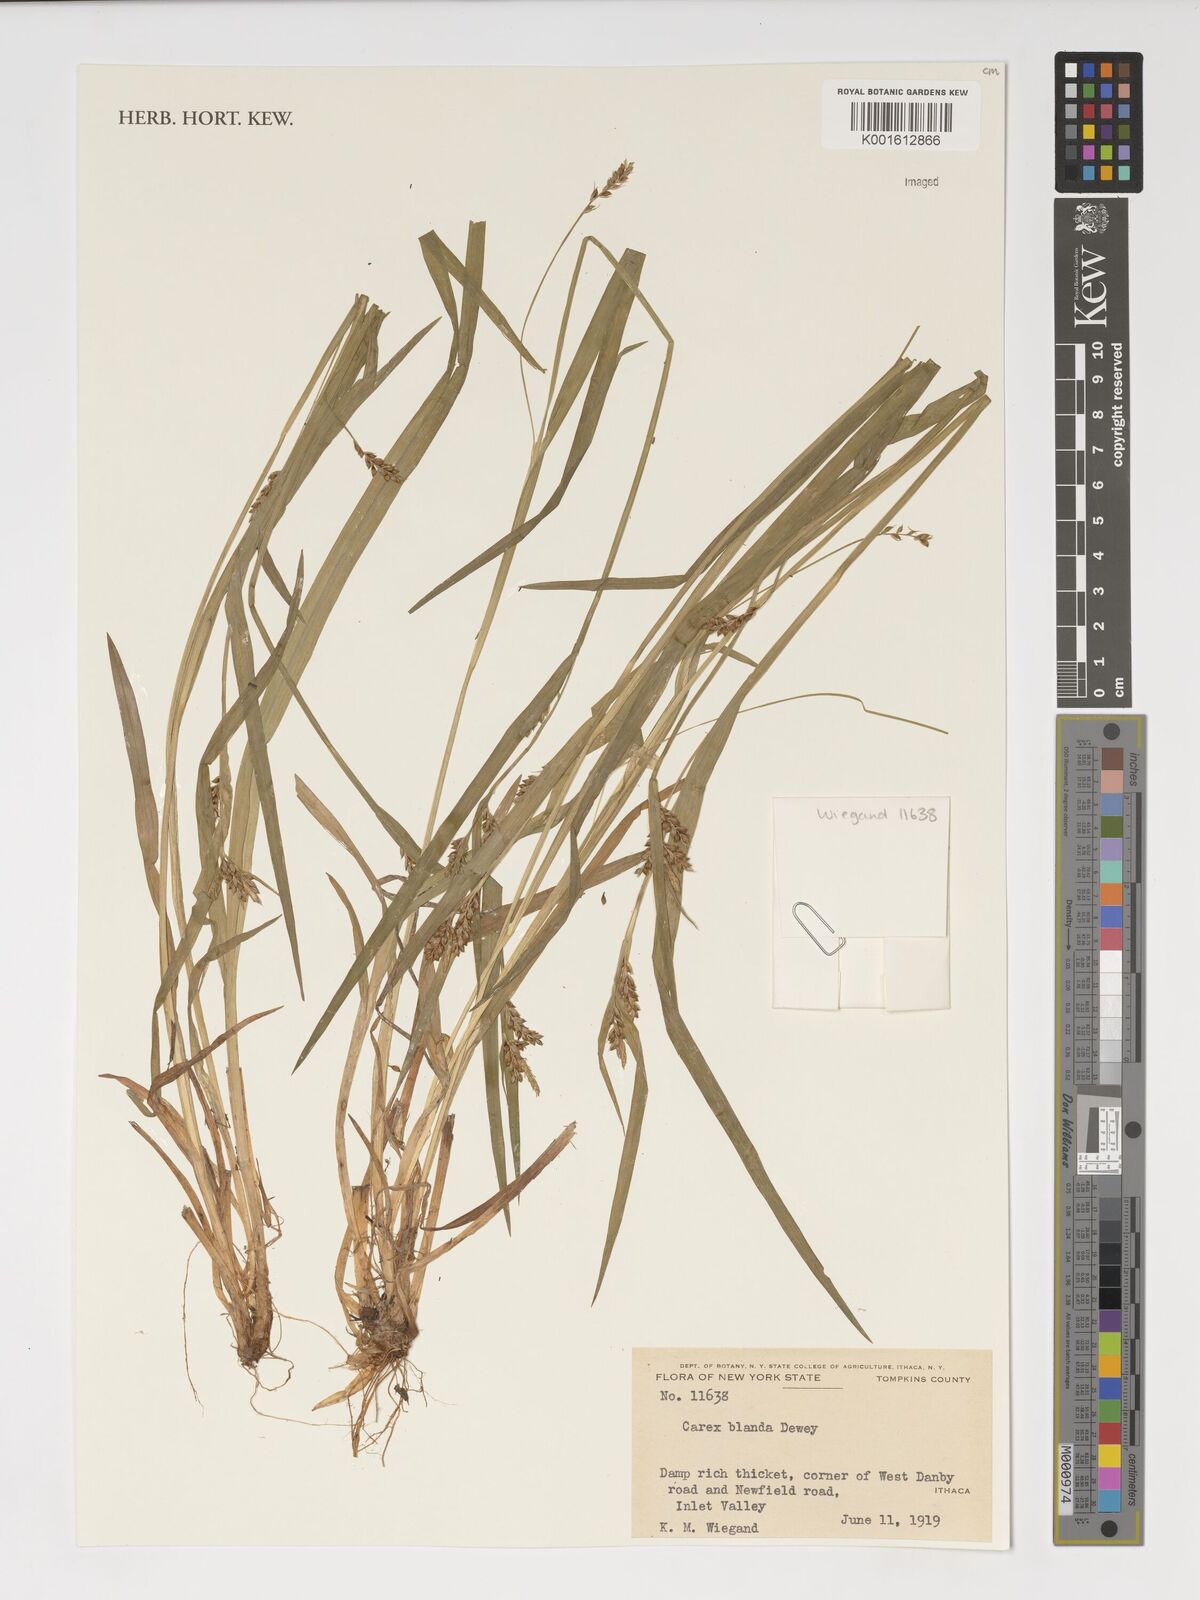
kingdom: Plantae
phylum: Tracheophyta
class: Liliopsida
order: Poales
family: Cyperaceae
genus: Carex
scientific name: Carex blanda
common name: Bland sedge
